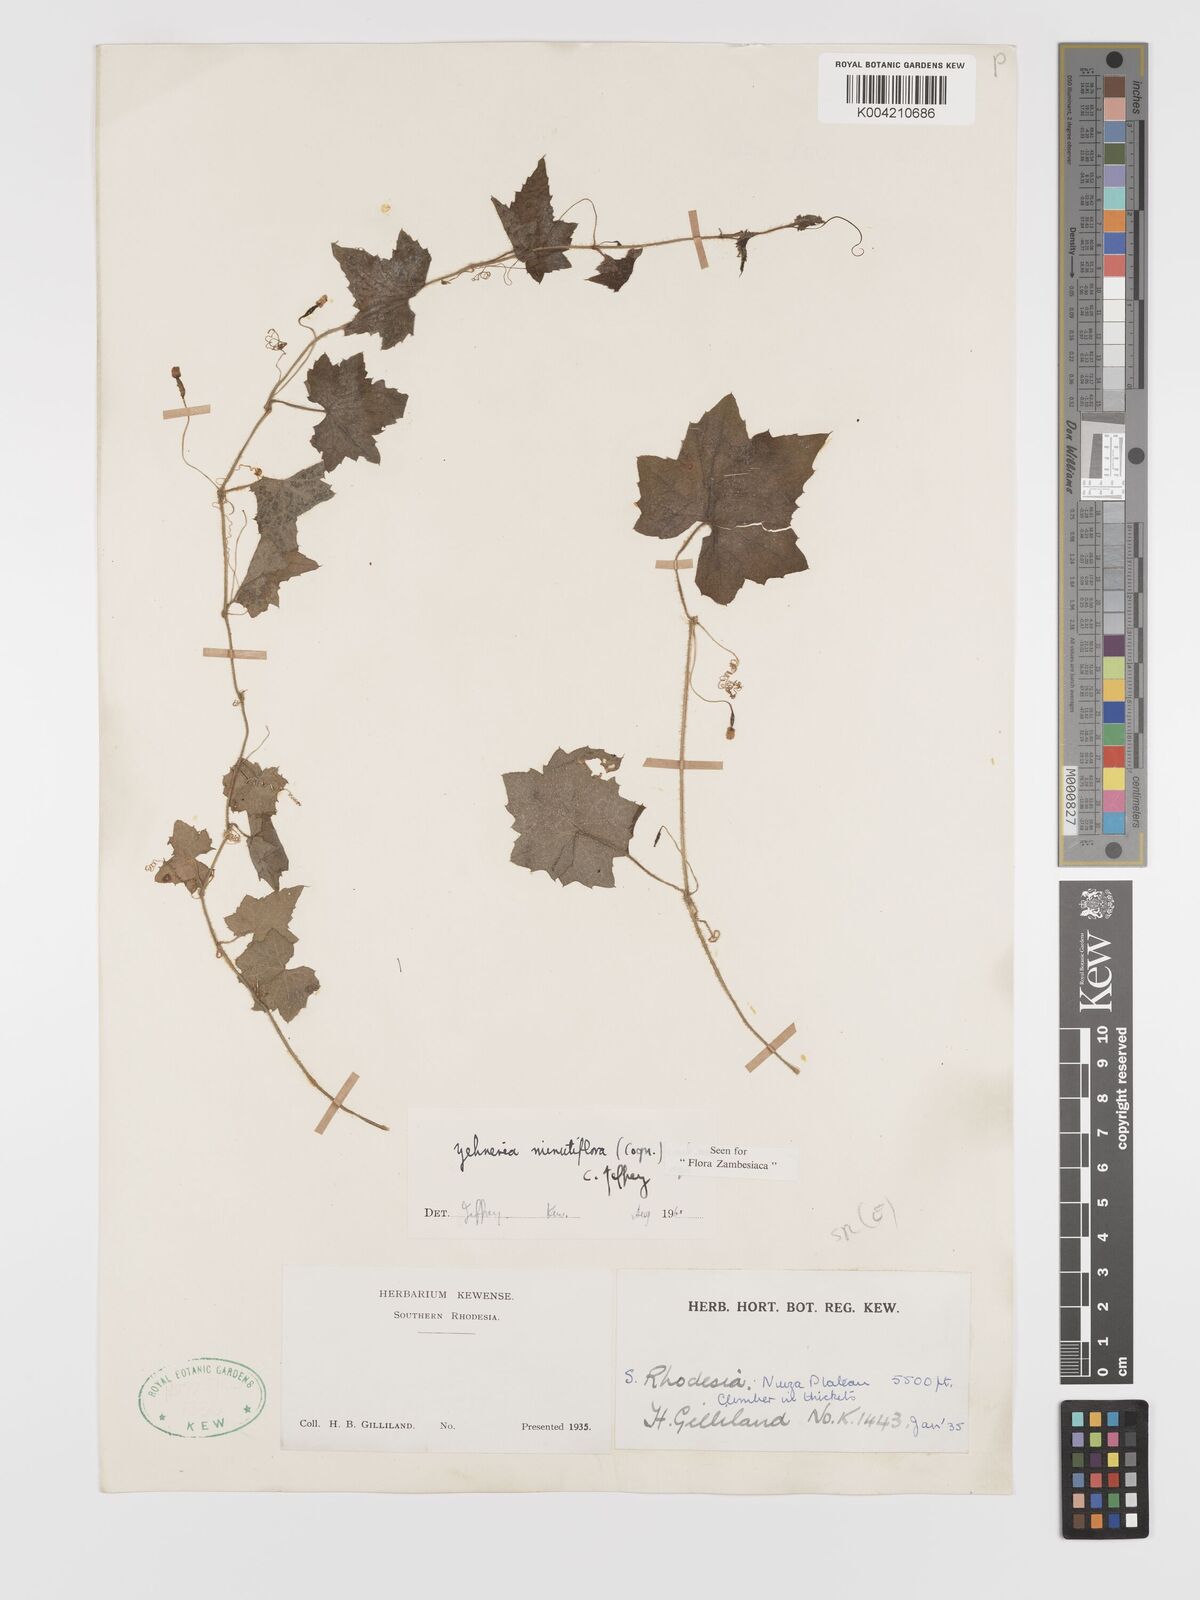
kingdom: Plantae
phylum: Tracheophyta
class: Magnoliopsida
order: Cucurbitales
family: Cucurbitaceae
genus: Zehneria
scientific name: Zehneria minutiflora
